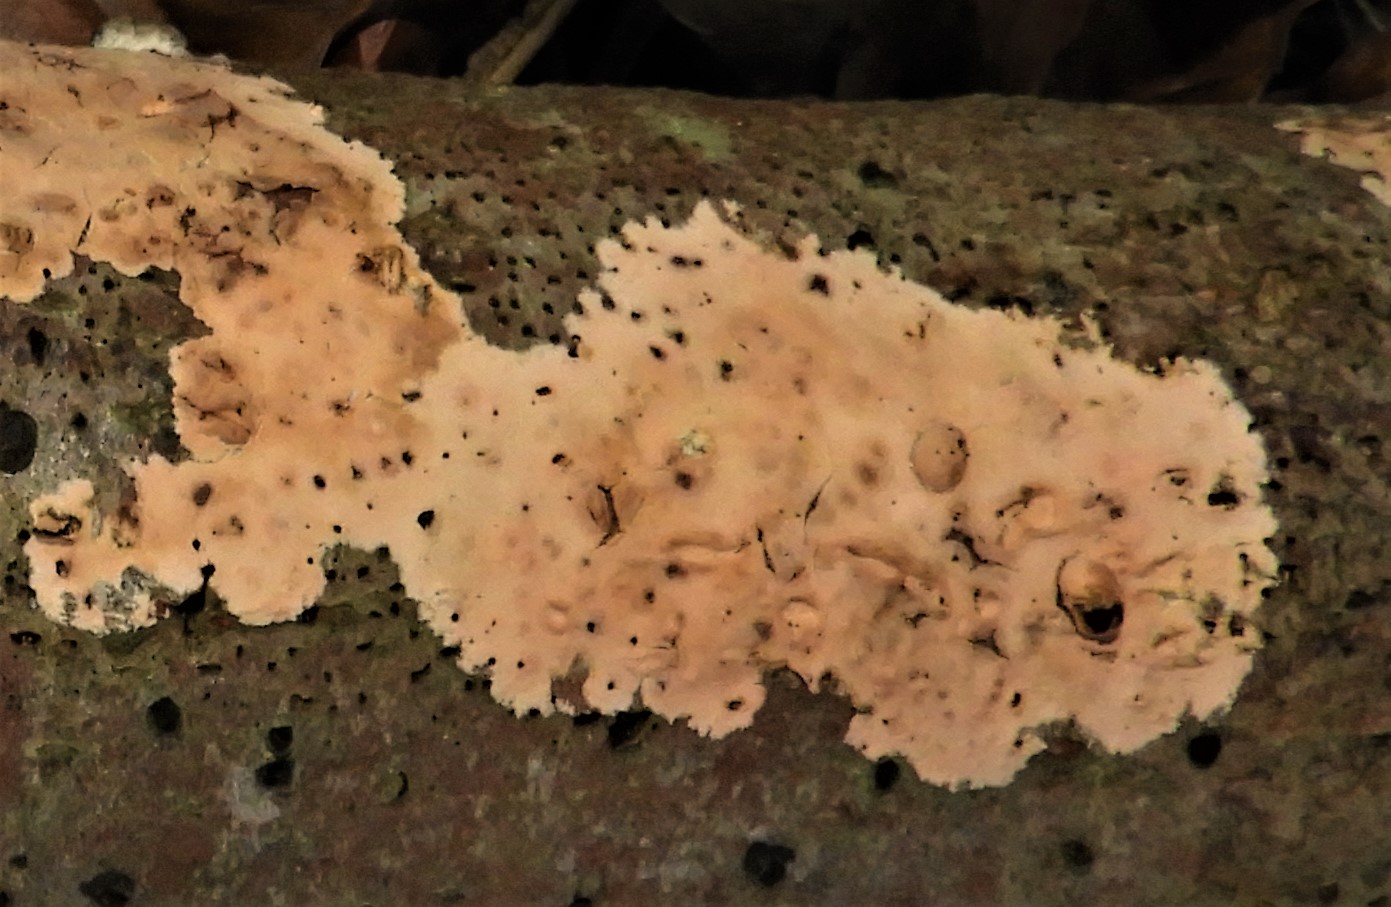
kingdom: Fungi
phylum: Basidiomycota
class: Agaricomycetes
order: Russulales
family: Peniophoraceae
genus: Peniophora
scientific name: Peniophora incarnata
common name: laksefarvet voksskind
